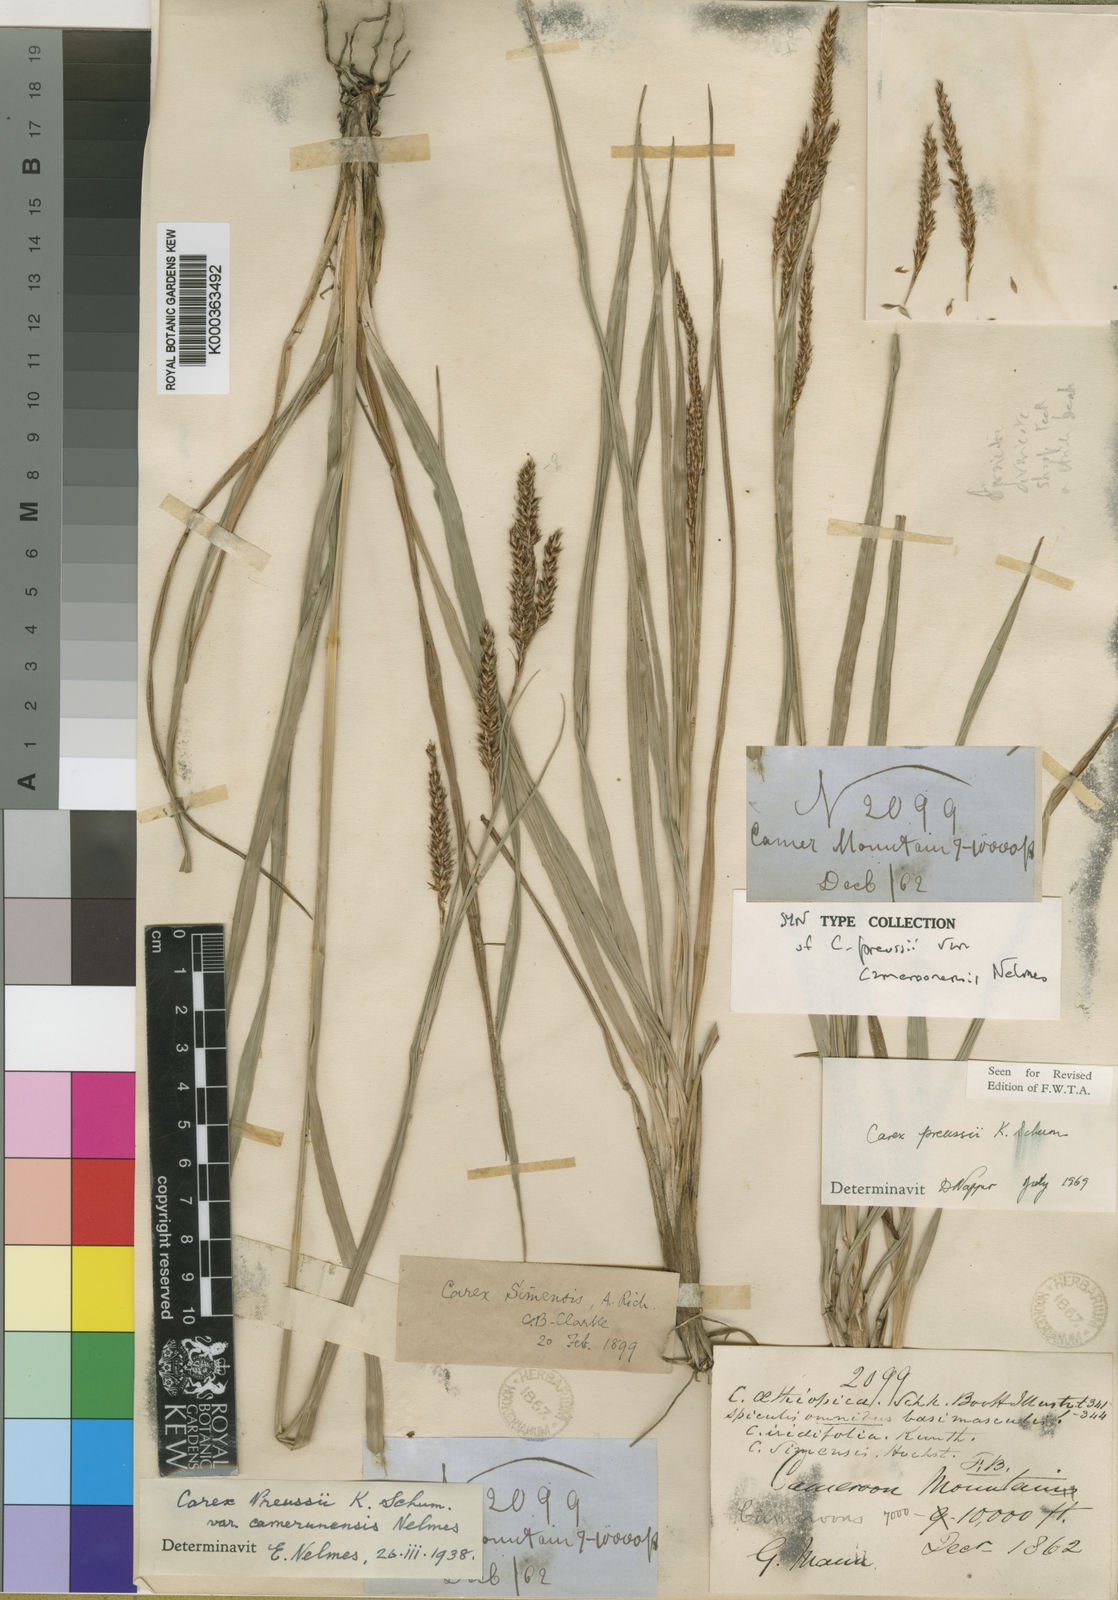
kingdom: Plantae
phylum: Tracheophyta
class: Liliopsida
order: Poales
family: Cyperaceae
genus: Carex
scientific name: Carex petitiana
